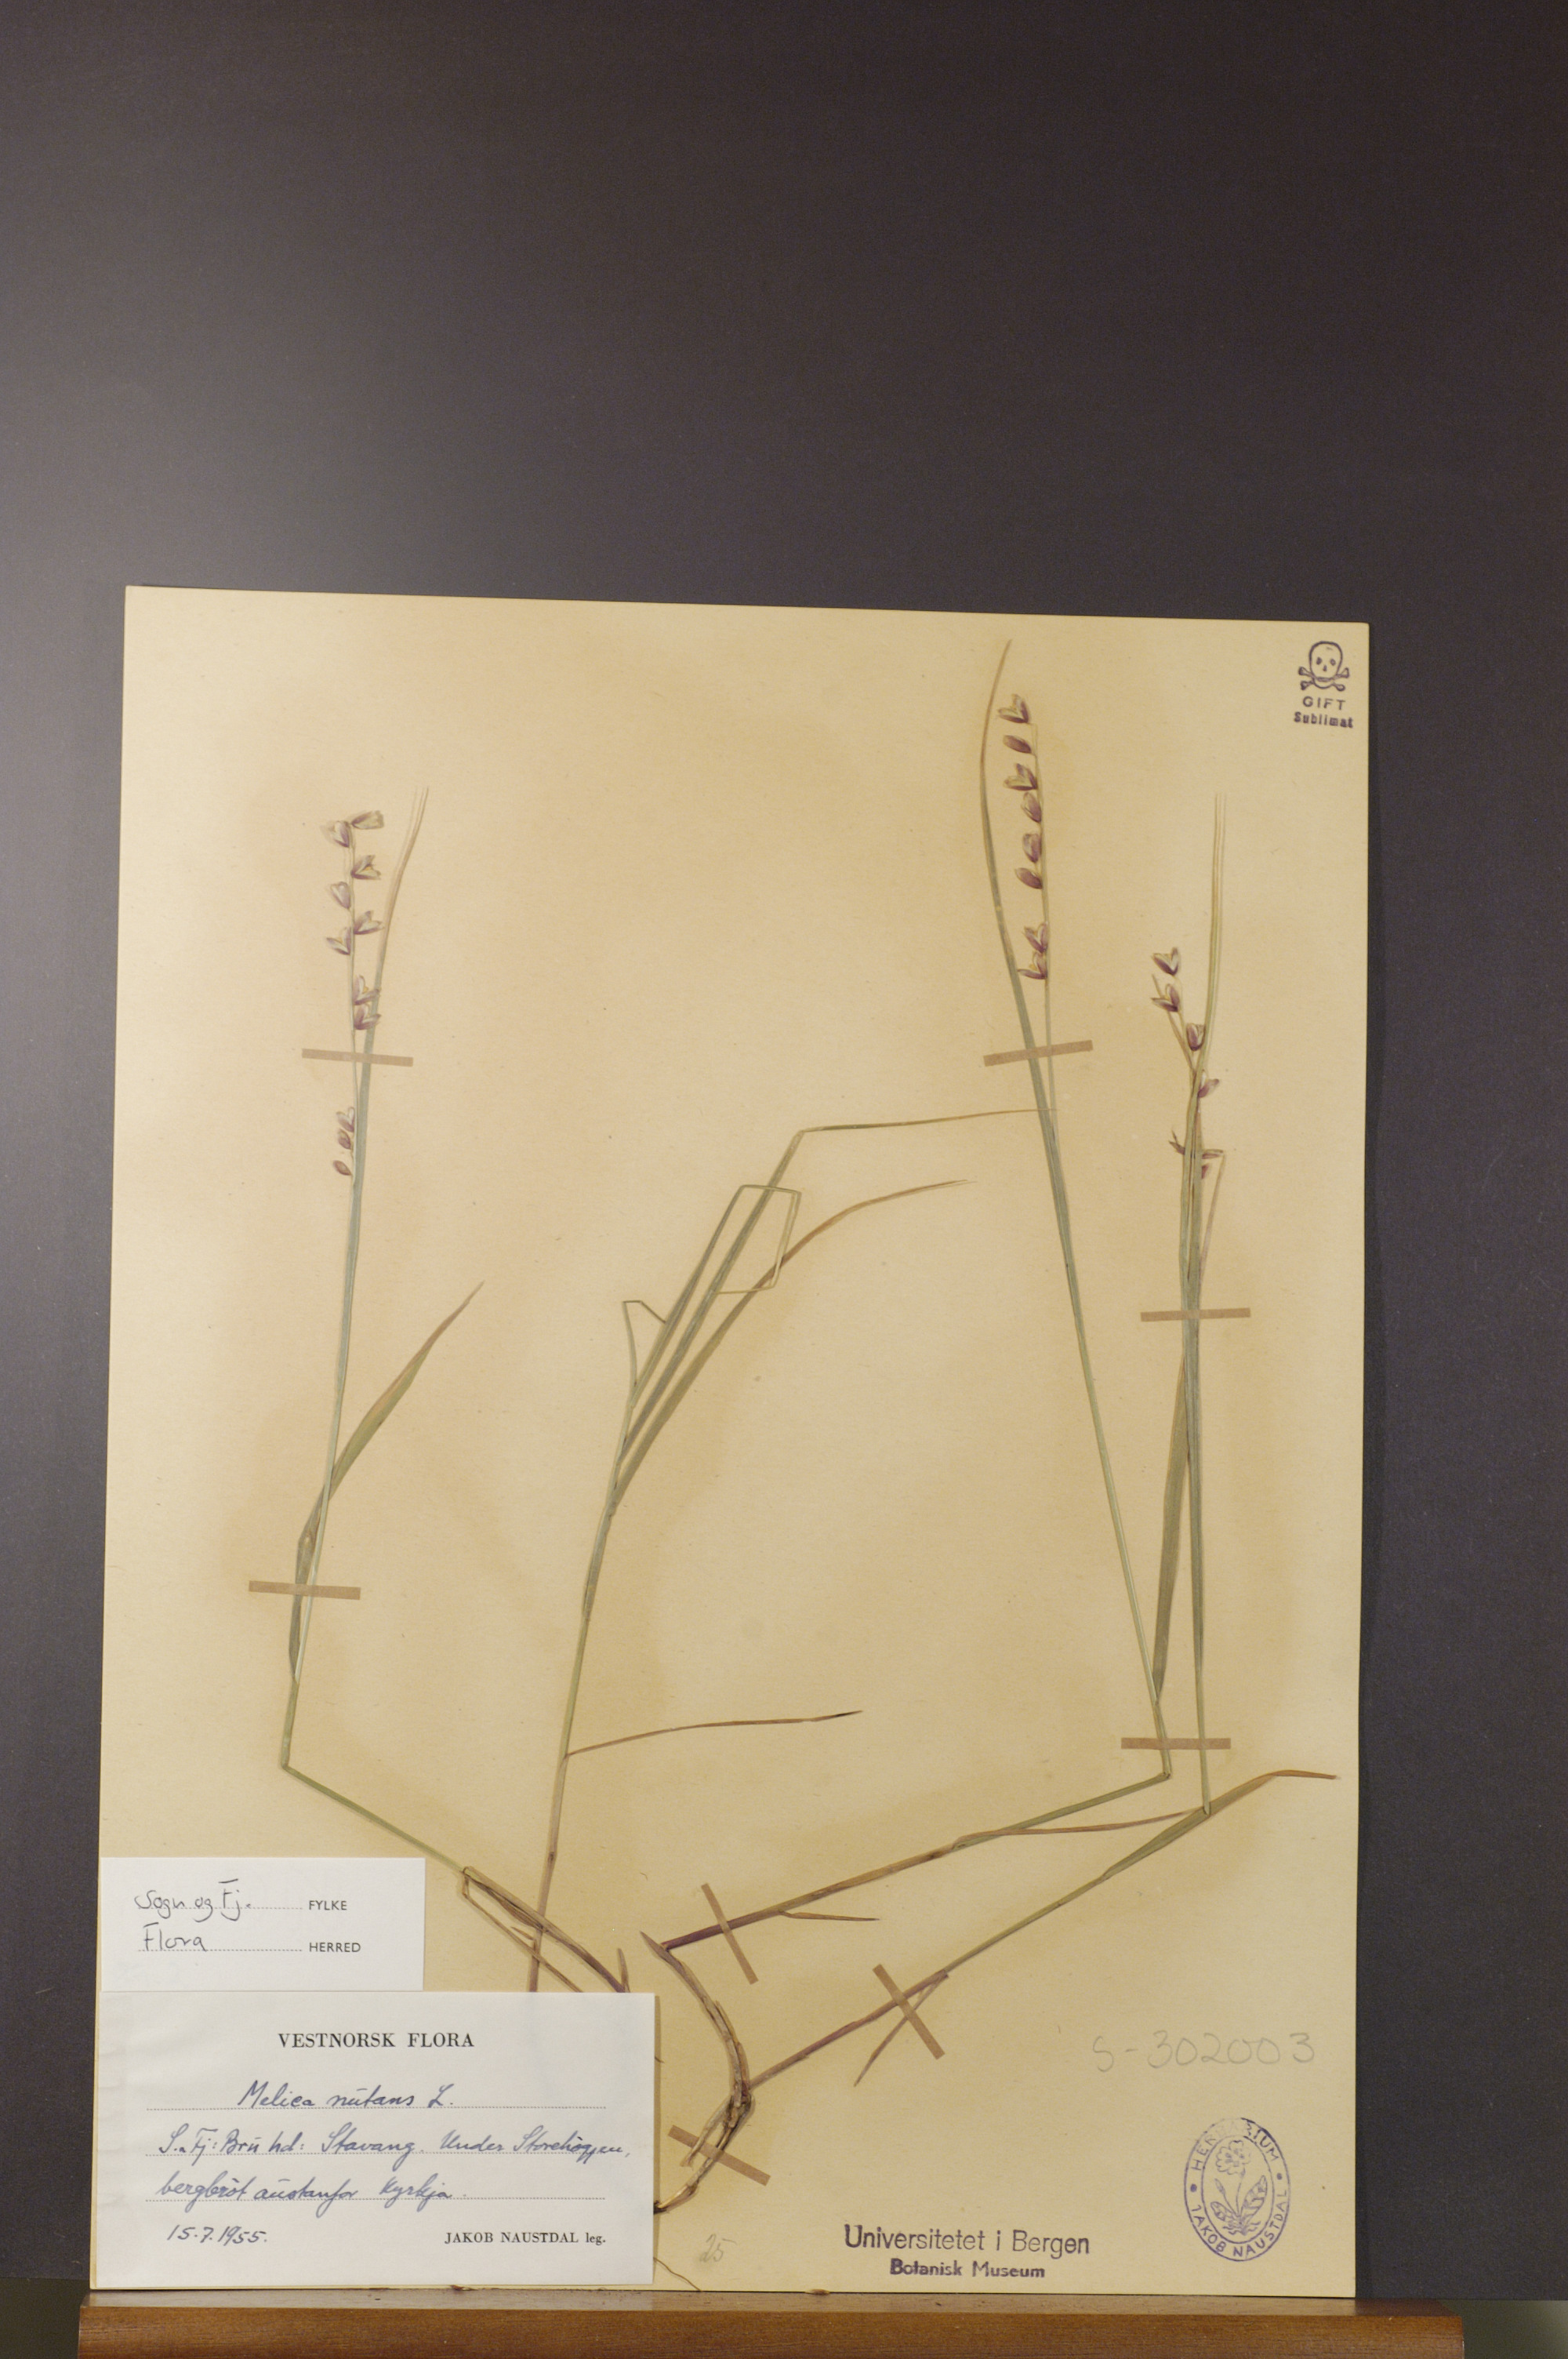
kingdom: Plantae
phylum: Tracheophyta
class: Liliopsida
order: Poales
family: Poaceae
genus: Melica
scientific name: Melica nutans
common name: Mountain melick
